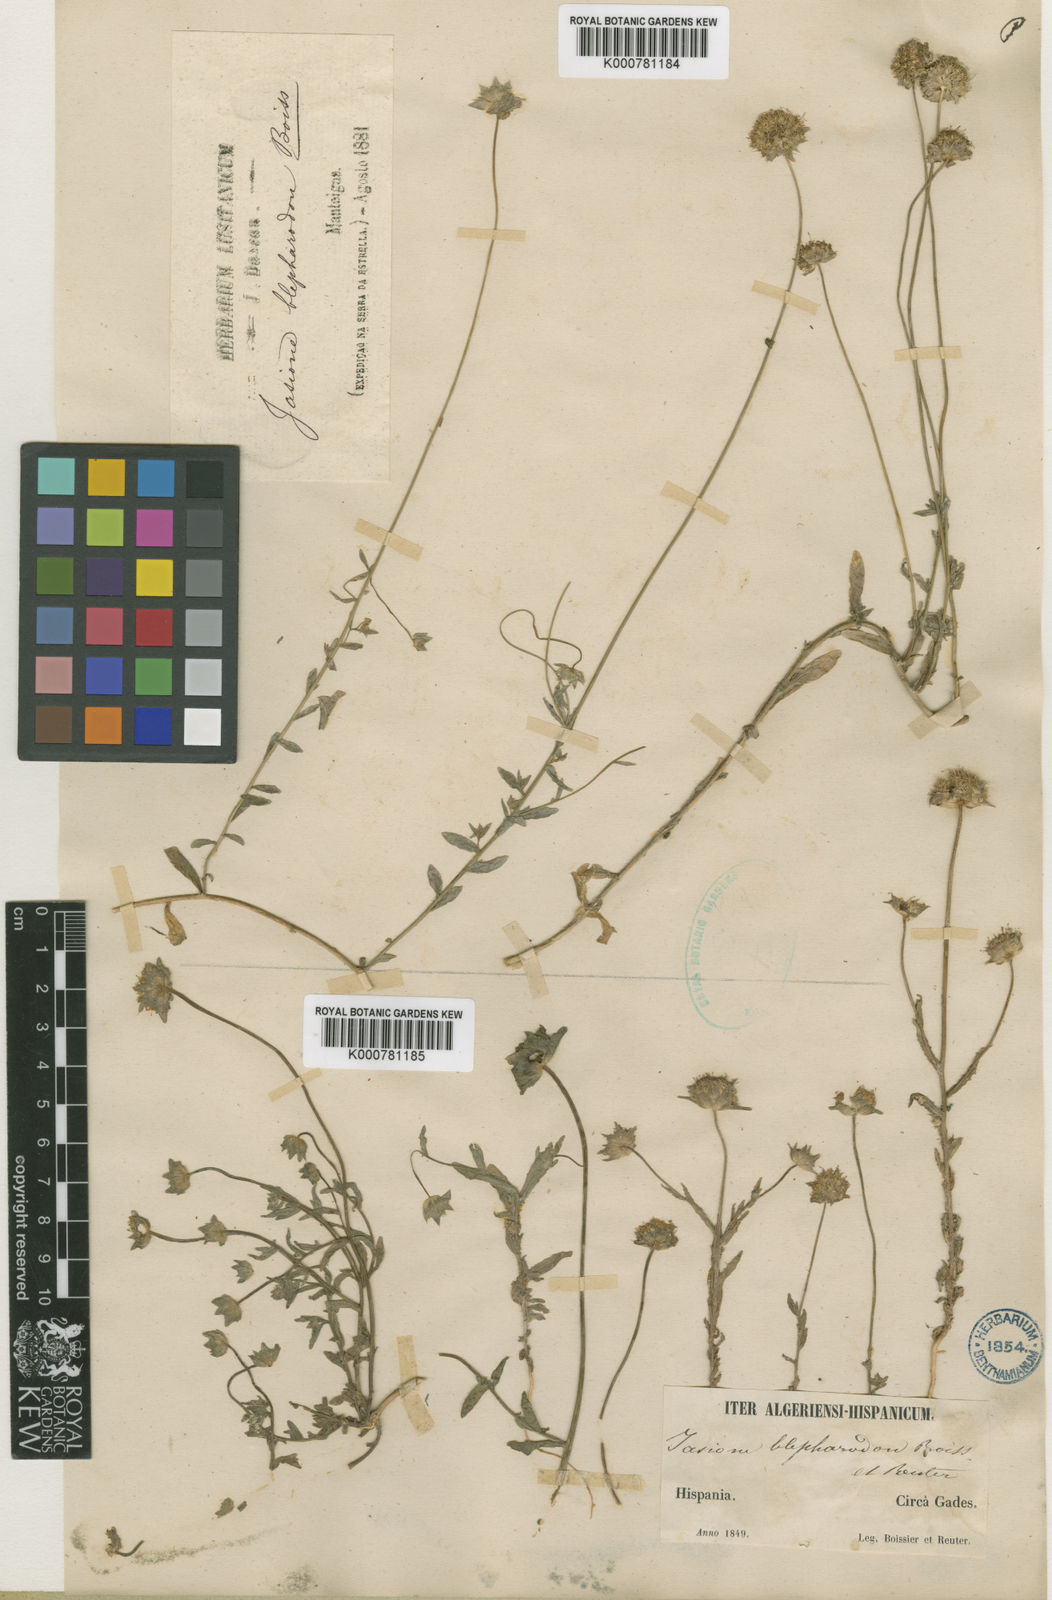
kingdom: Plantae
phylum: Tracheophyta
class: Magnoliopsida
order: Asterales
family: Campanulaceae
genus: Jasione
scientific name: Jasione montana
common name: Sheep's-bit
